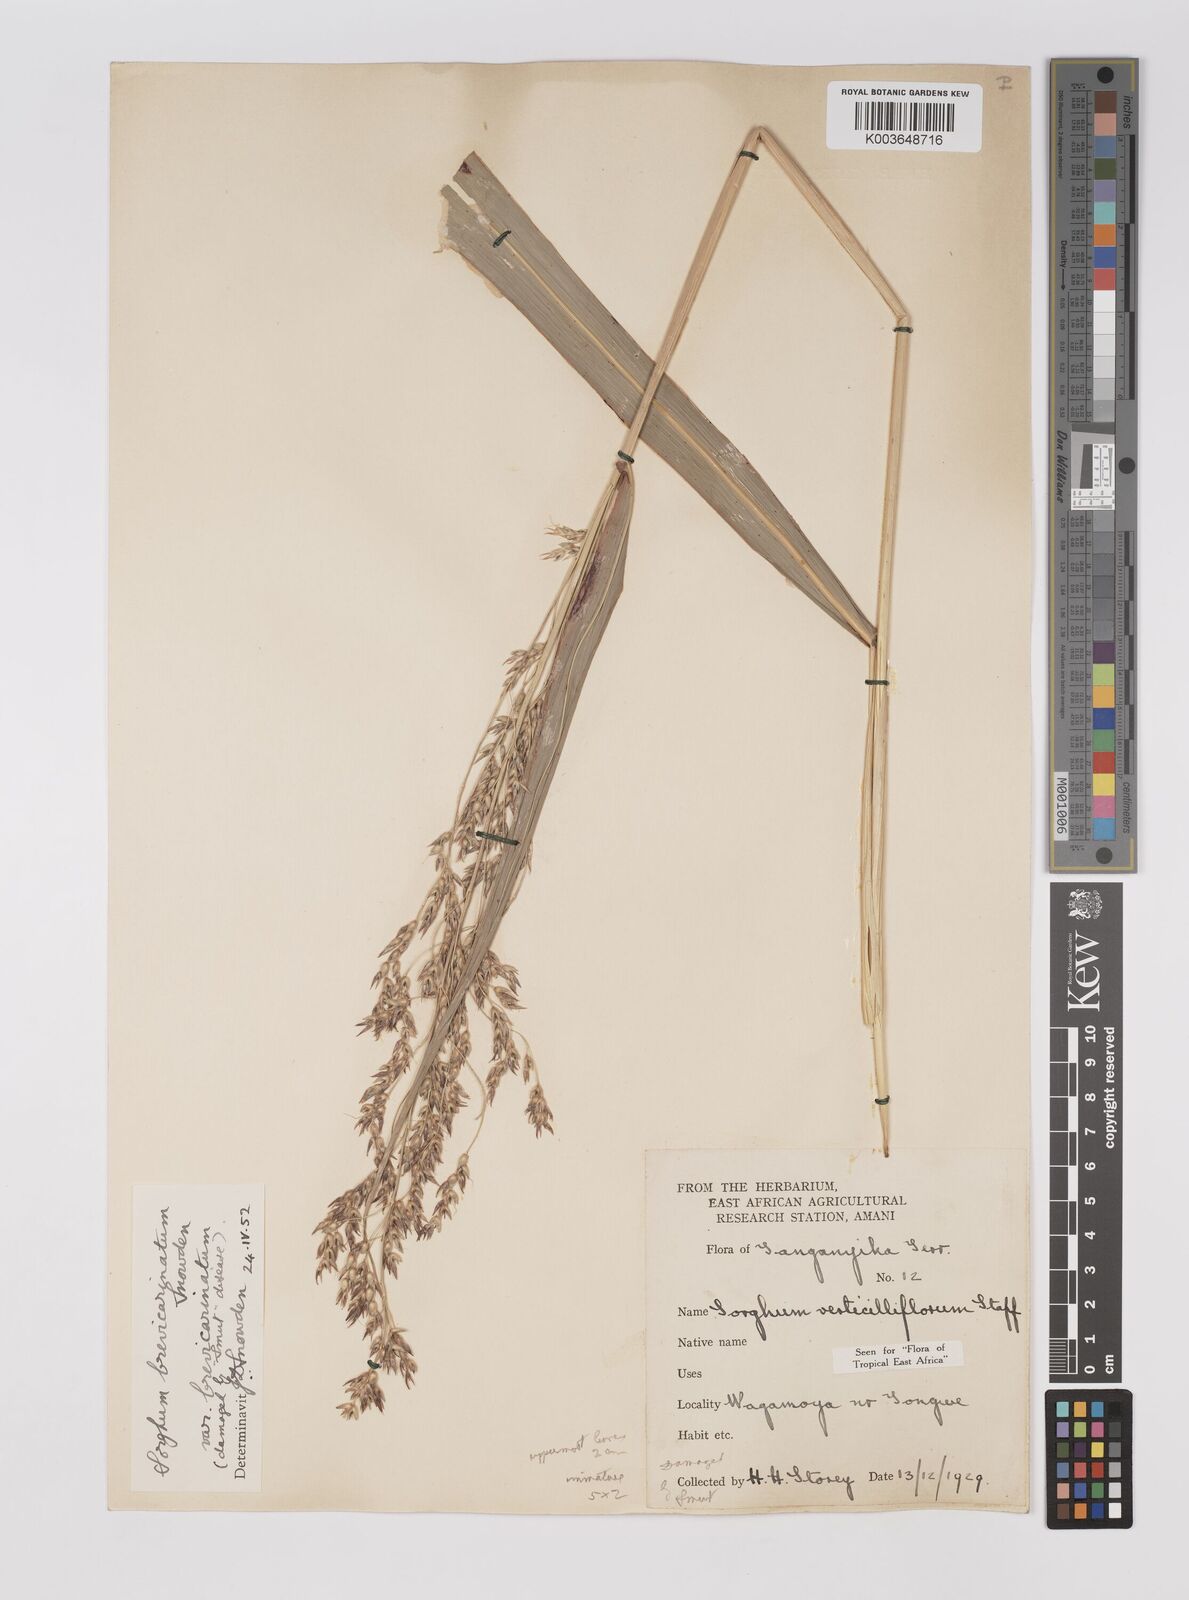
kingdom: Plantae
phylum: Tracheophyta
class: Liliopsida
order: Poales
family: Poaceae
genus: Sorghum
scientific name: Sorghum arundinaceum
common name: Sorghum
